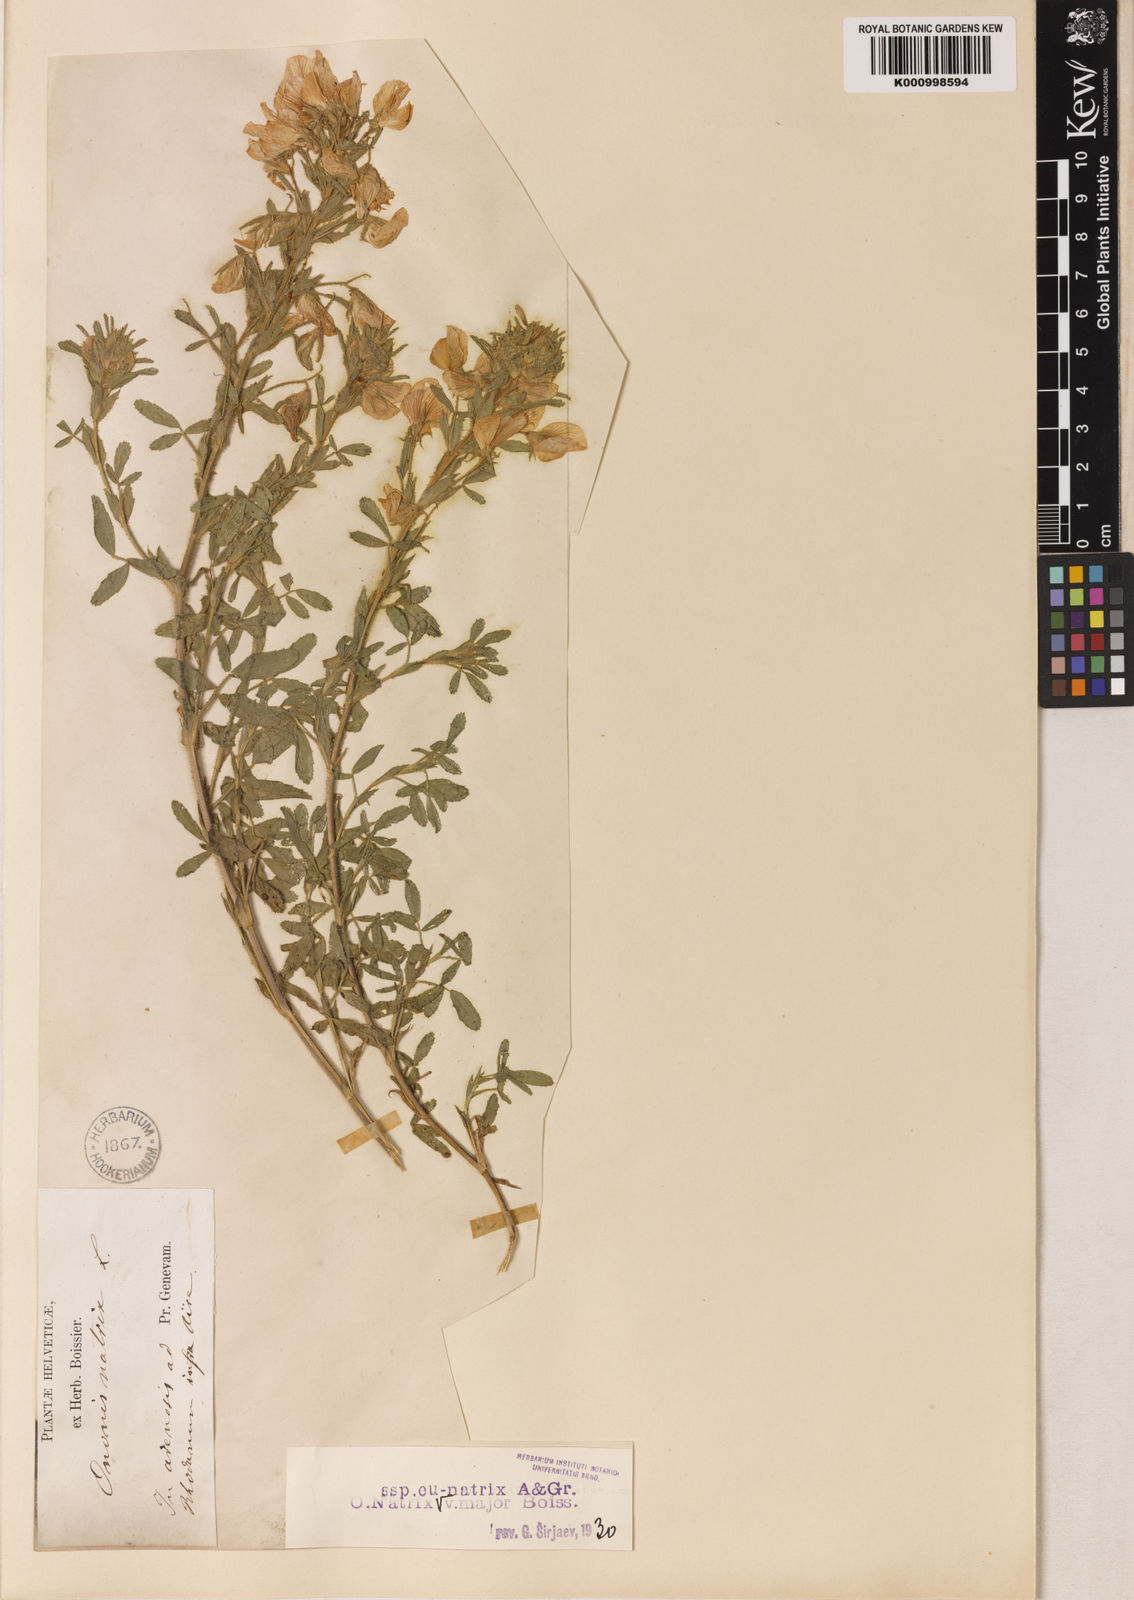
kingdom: Plantae
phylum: Tracheophyta
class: Magnoliopsida
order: Fabales
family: Fabaceae
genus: Ononis
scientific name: Ononis natrix
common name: Yellow restharrow
